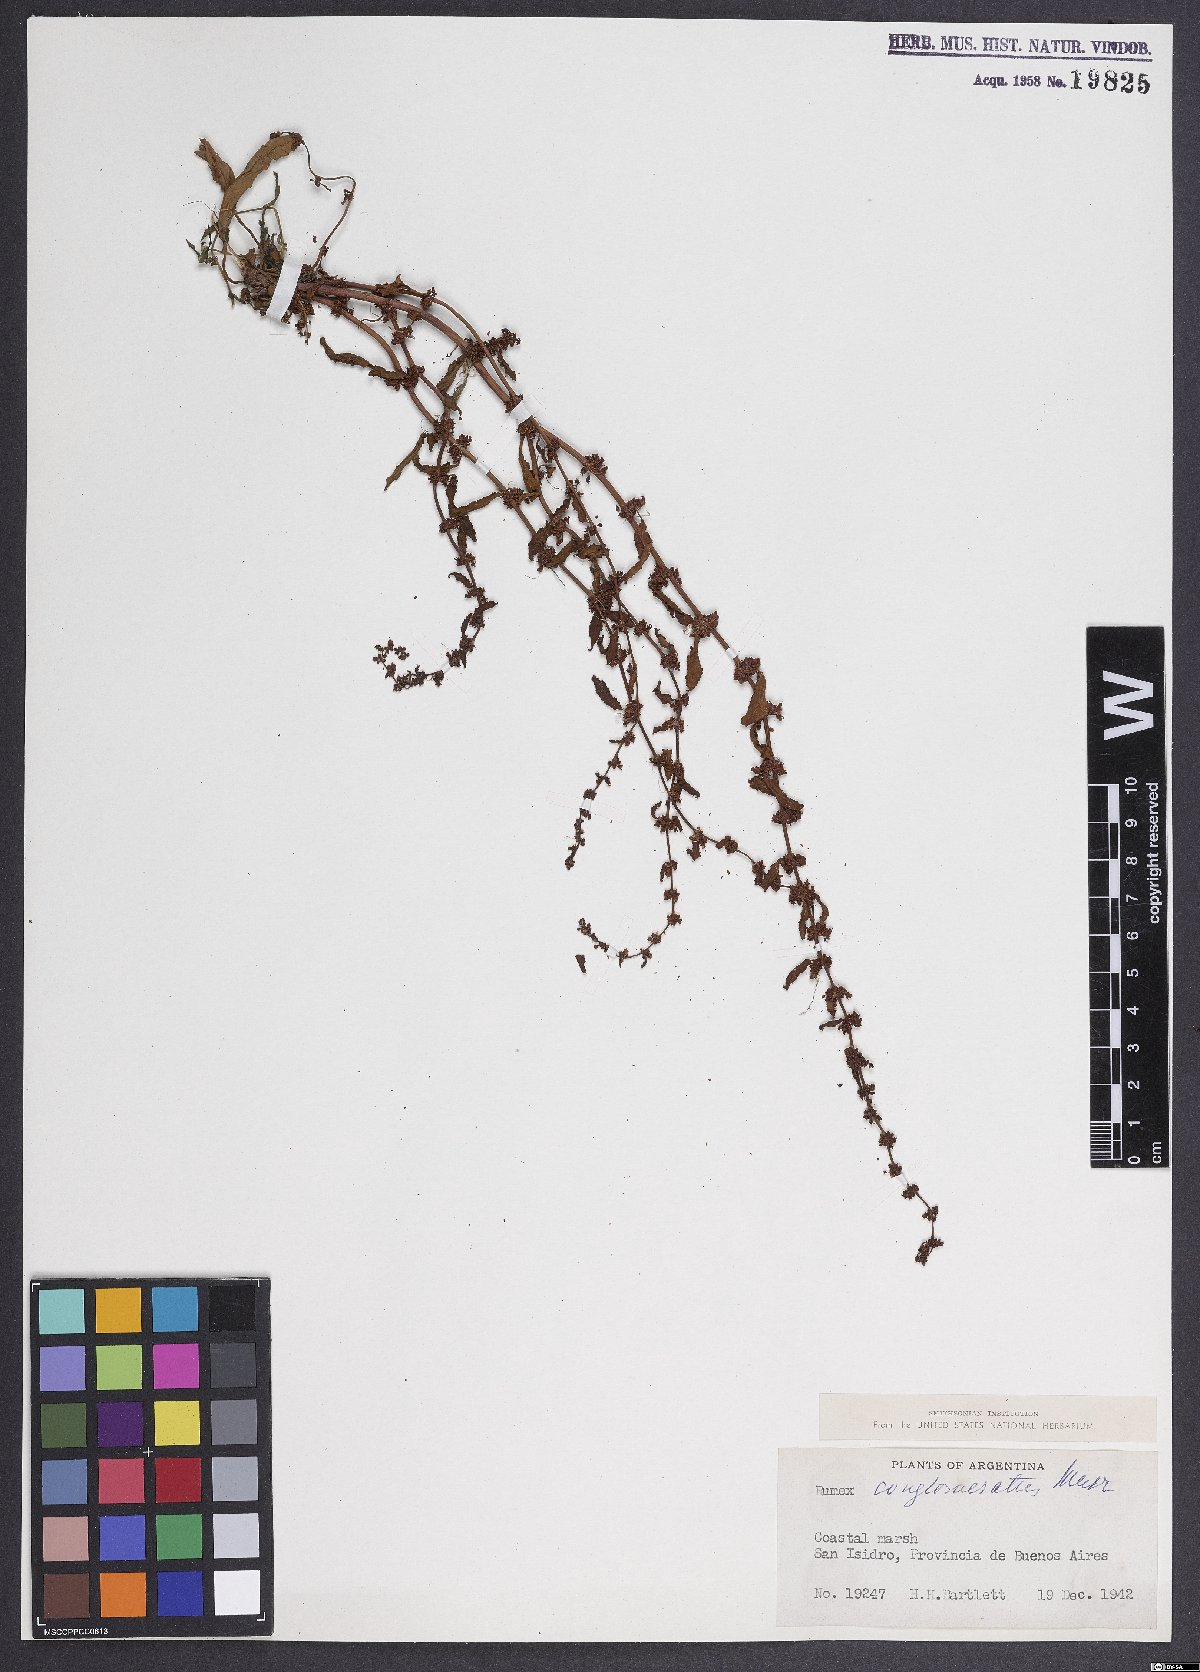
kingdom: Plantae
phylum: Tracheophyta
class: Magnoliopsida
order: Caryophyllales
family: Polygonaceae
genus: Rumex
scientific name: Rumex conglomeratus
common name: Clustered dock
